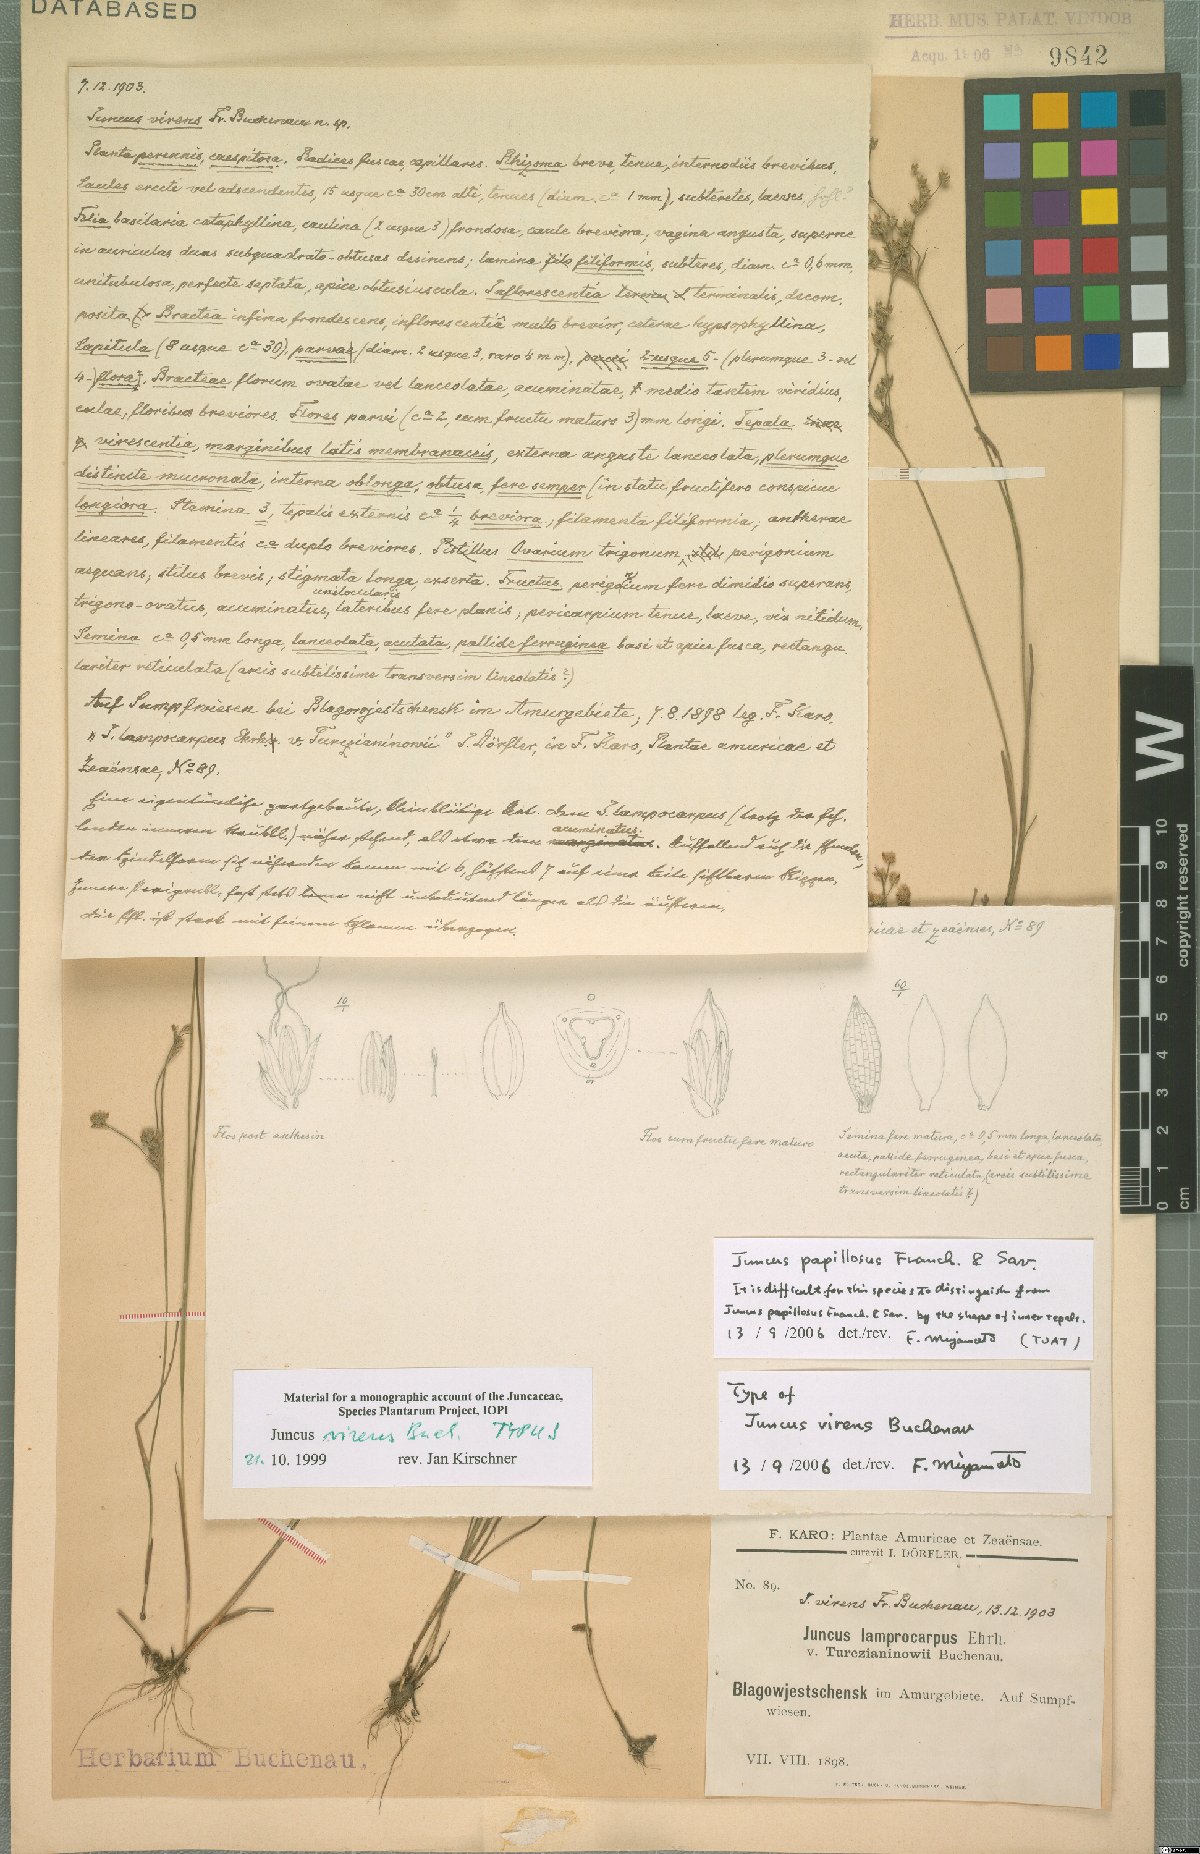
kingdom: Plantae
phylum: Tracheophyta
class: Liliopsida
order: Poales
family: Juncaceae
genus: Juncus
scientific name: Juncus papillosus
